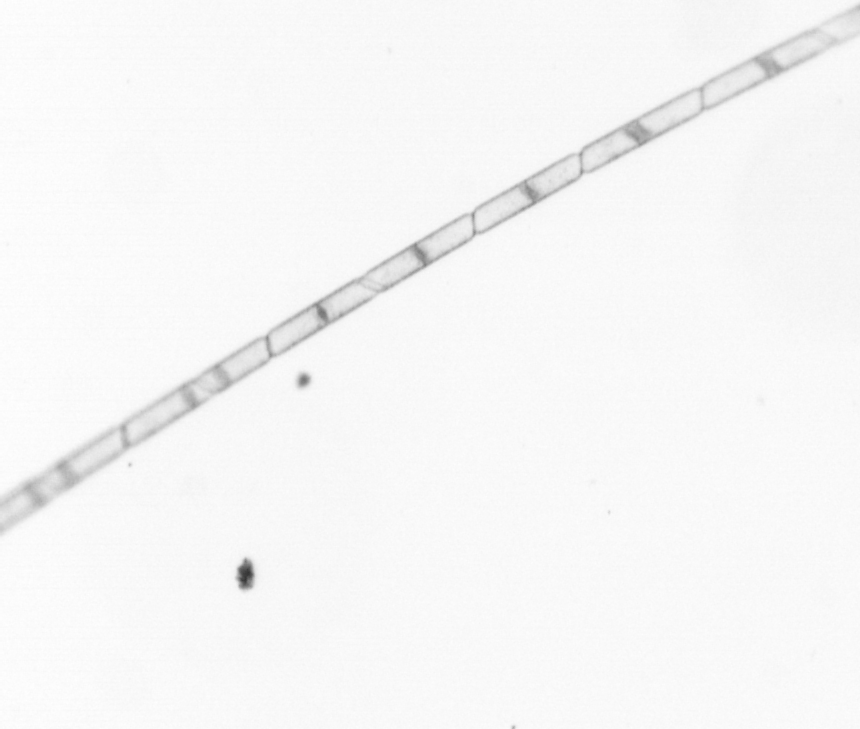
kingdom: Chromista
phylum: Ochrophyta
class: Bacillariophyceae
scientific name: Bacillariophyceae
